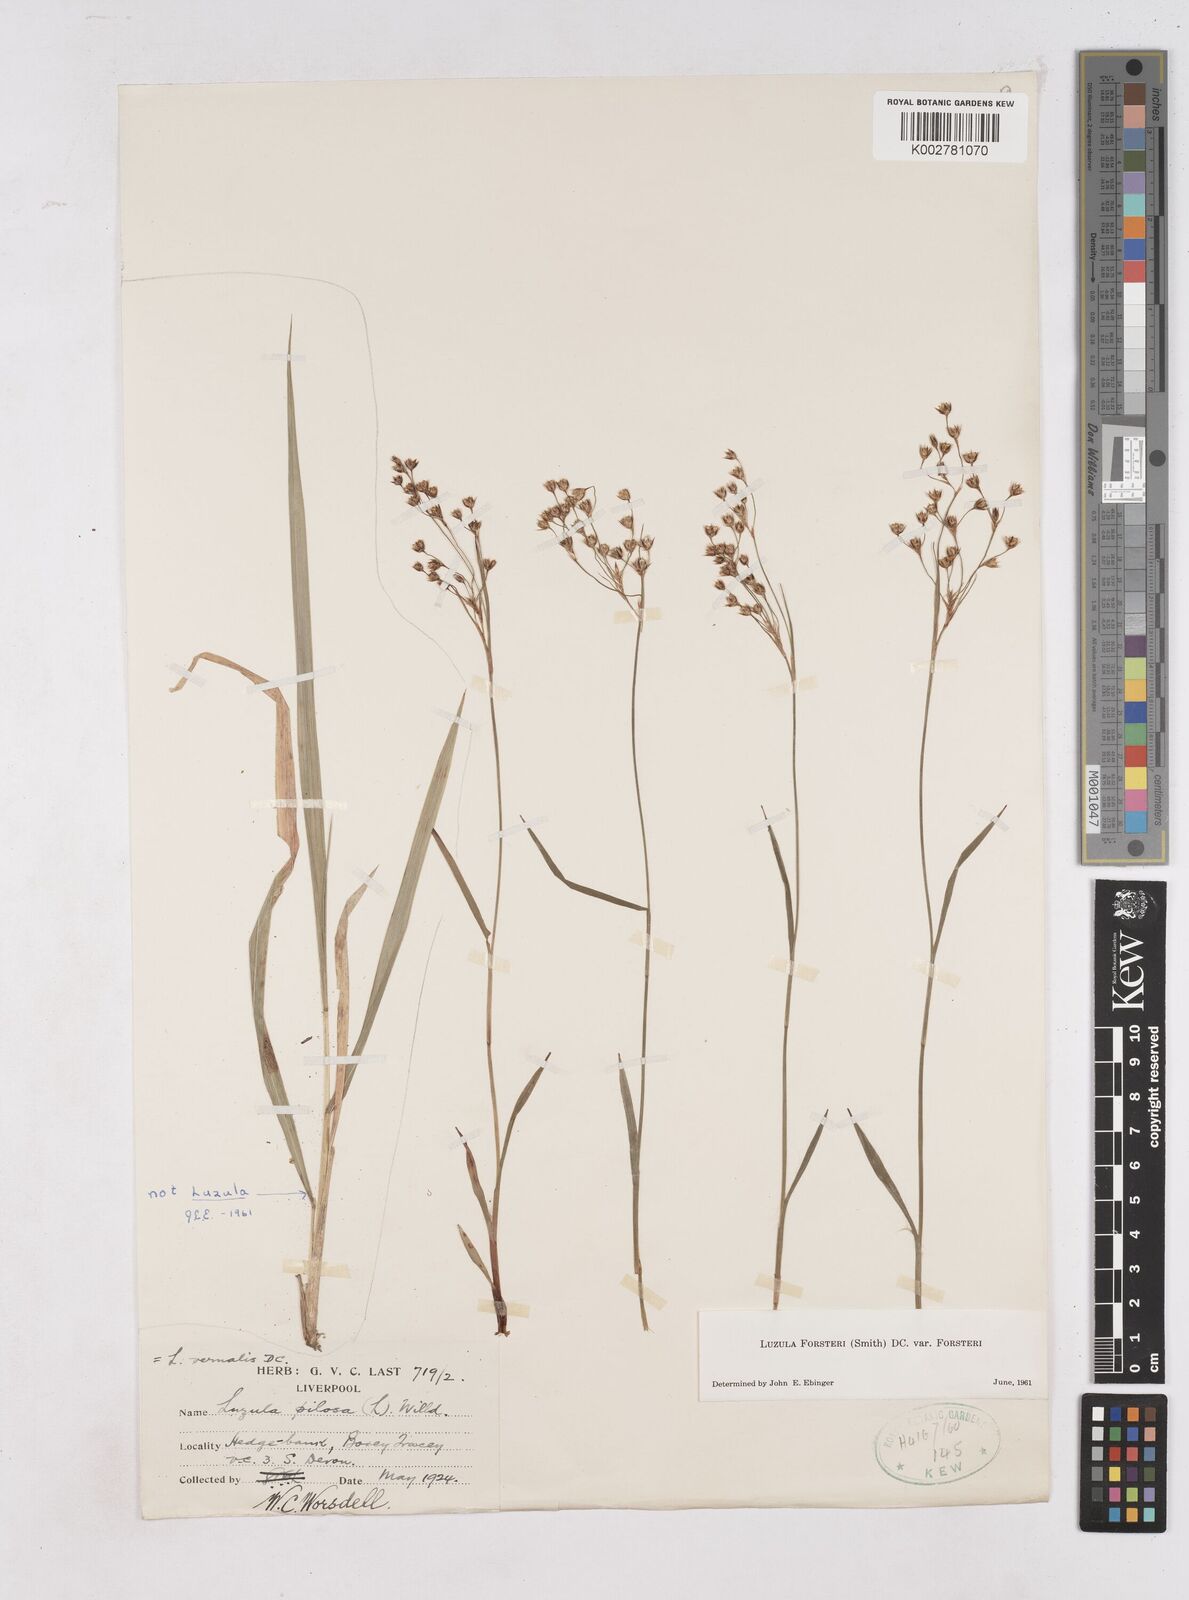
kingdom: Plantae
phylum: Tracheophyta
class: Liliopsida
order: Poales
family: Juncaceae
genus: Luzula
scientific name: Luzula forsteri
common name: Southern wood-rush
